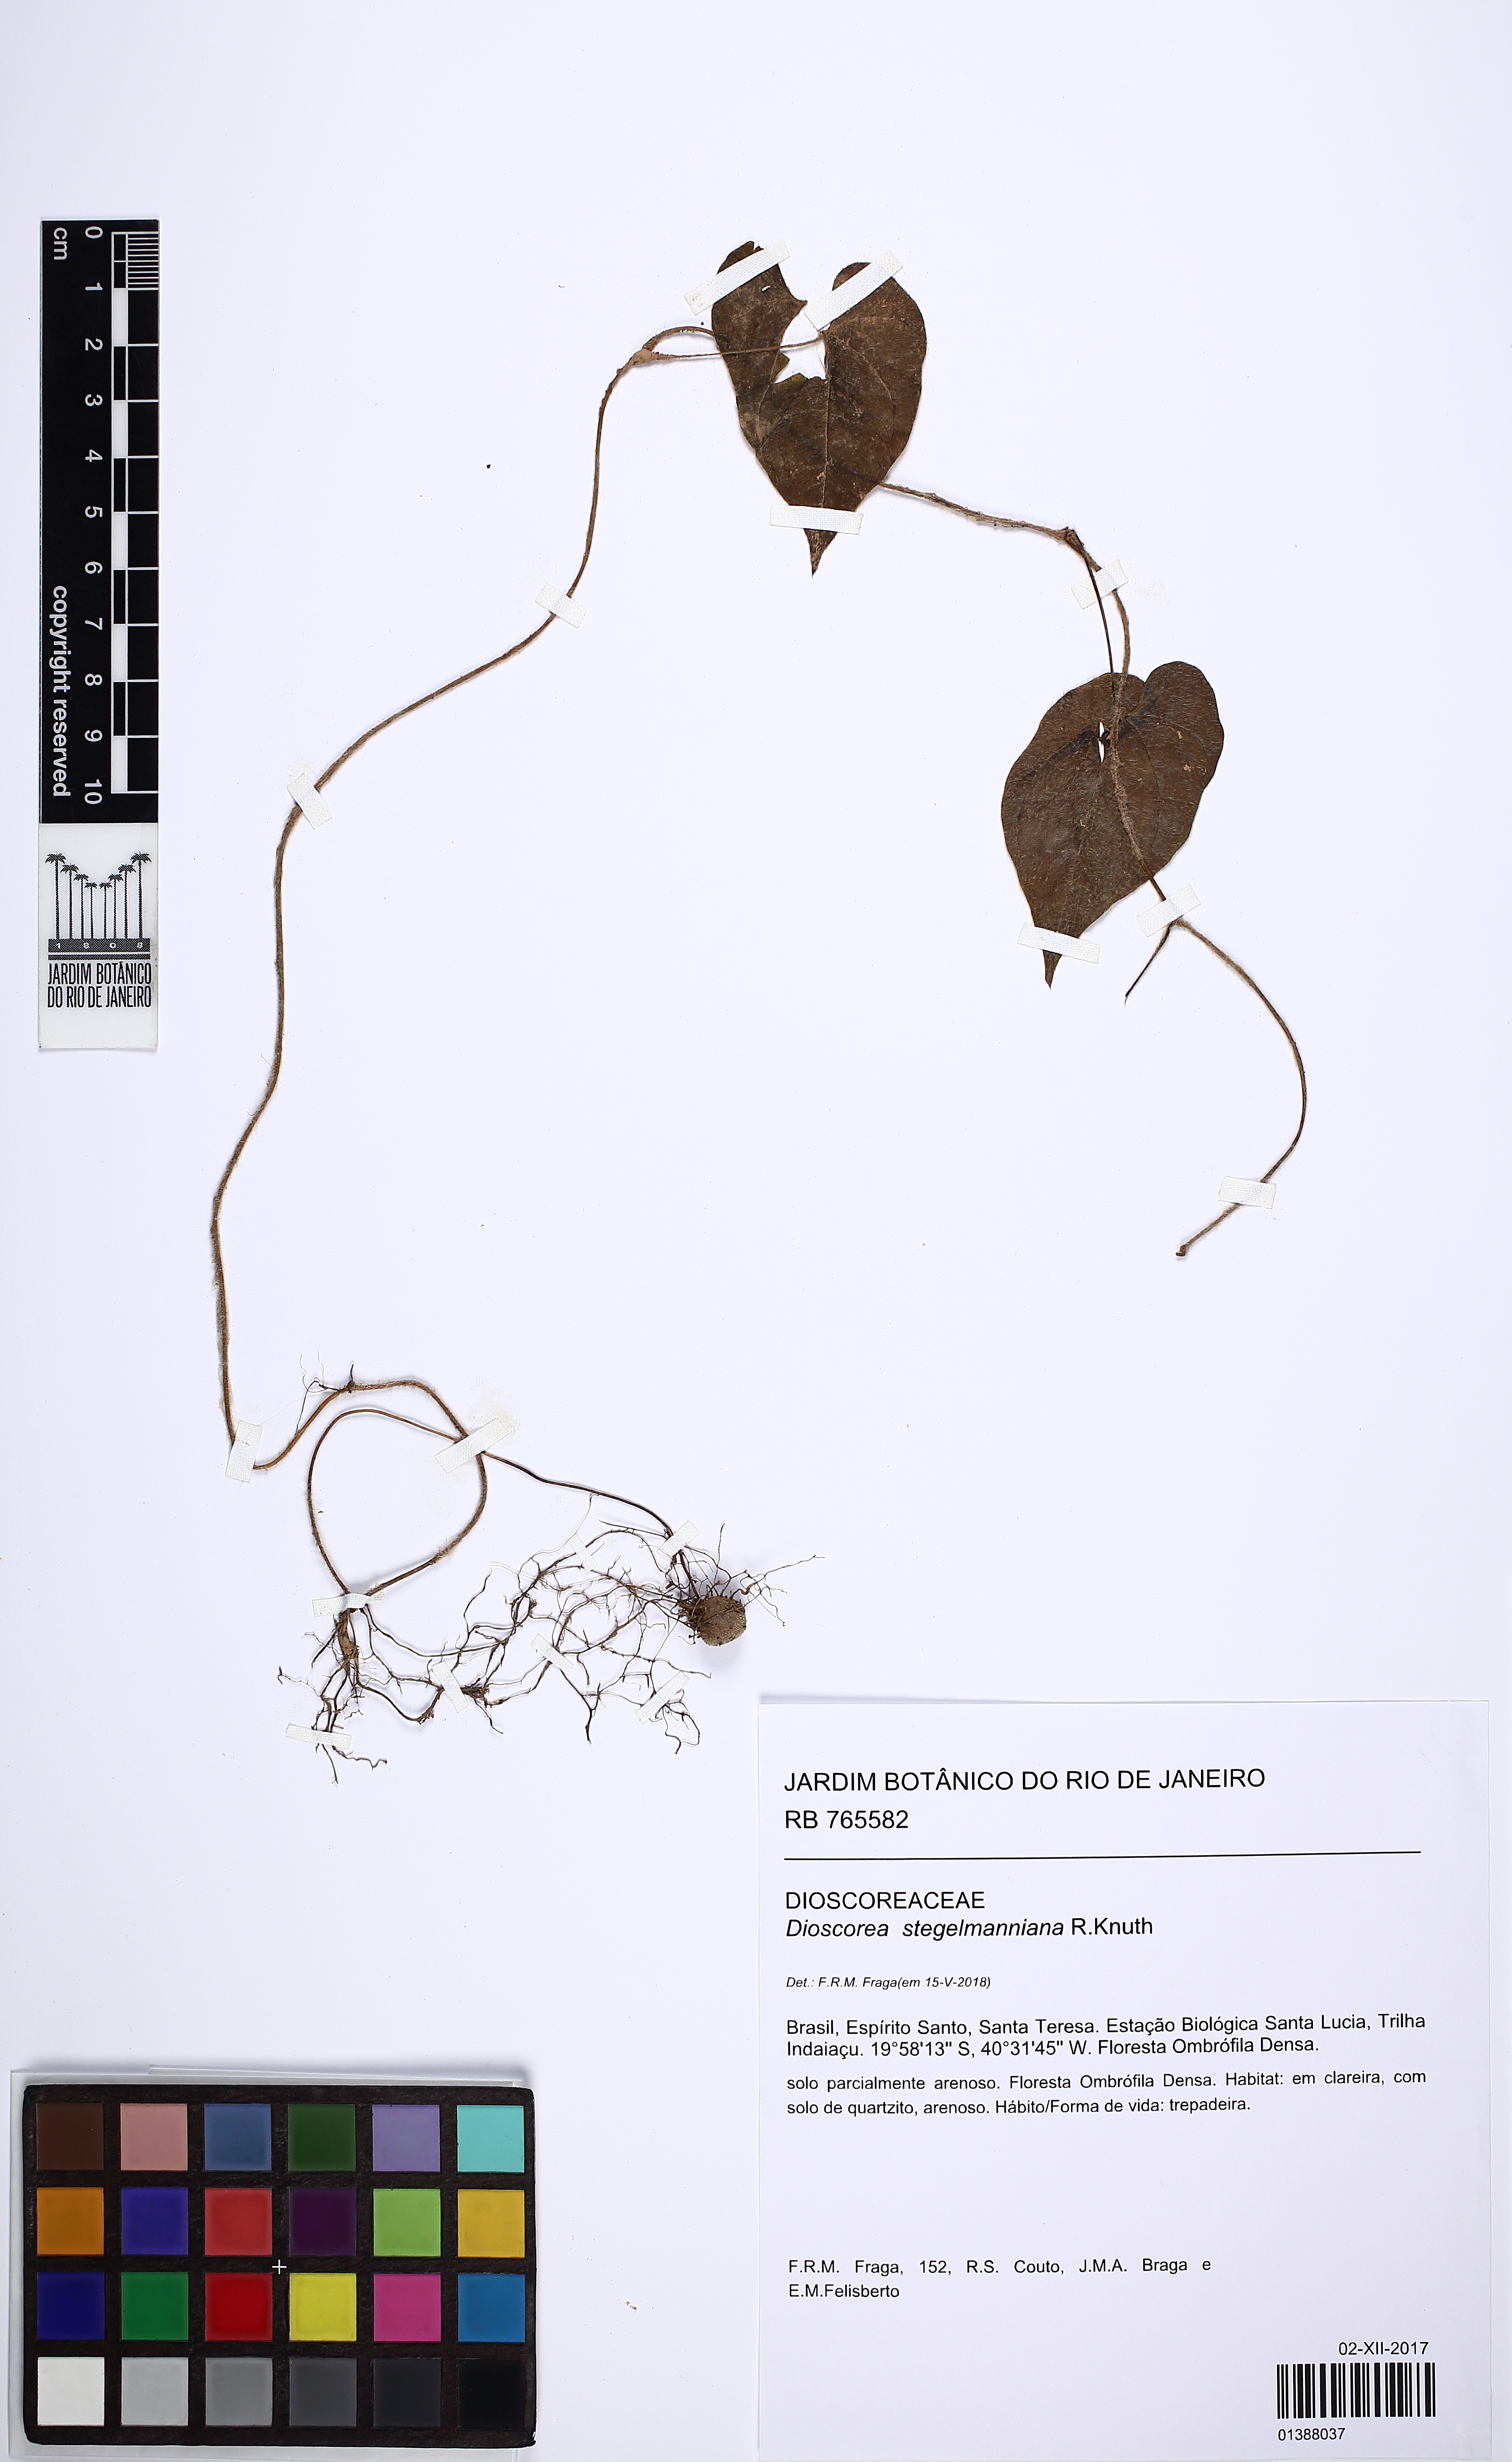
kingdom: Plantae
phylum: Tracheophyta
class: Liliopsida
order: Dioscoreales
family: Dioscoreaceae
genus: Dioscorea
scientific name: Dioscorea stegelmanniana
